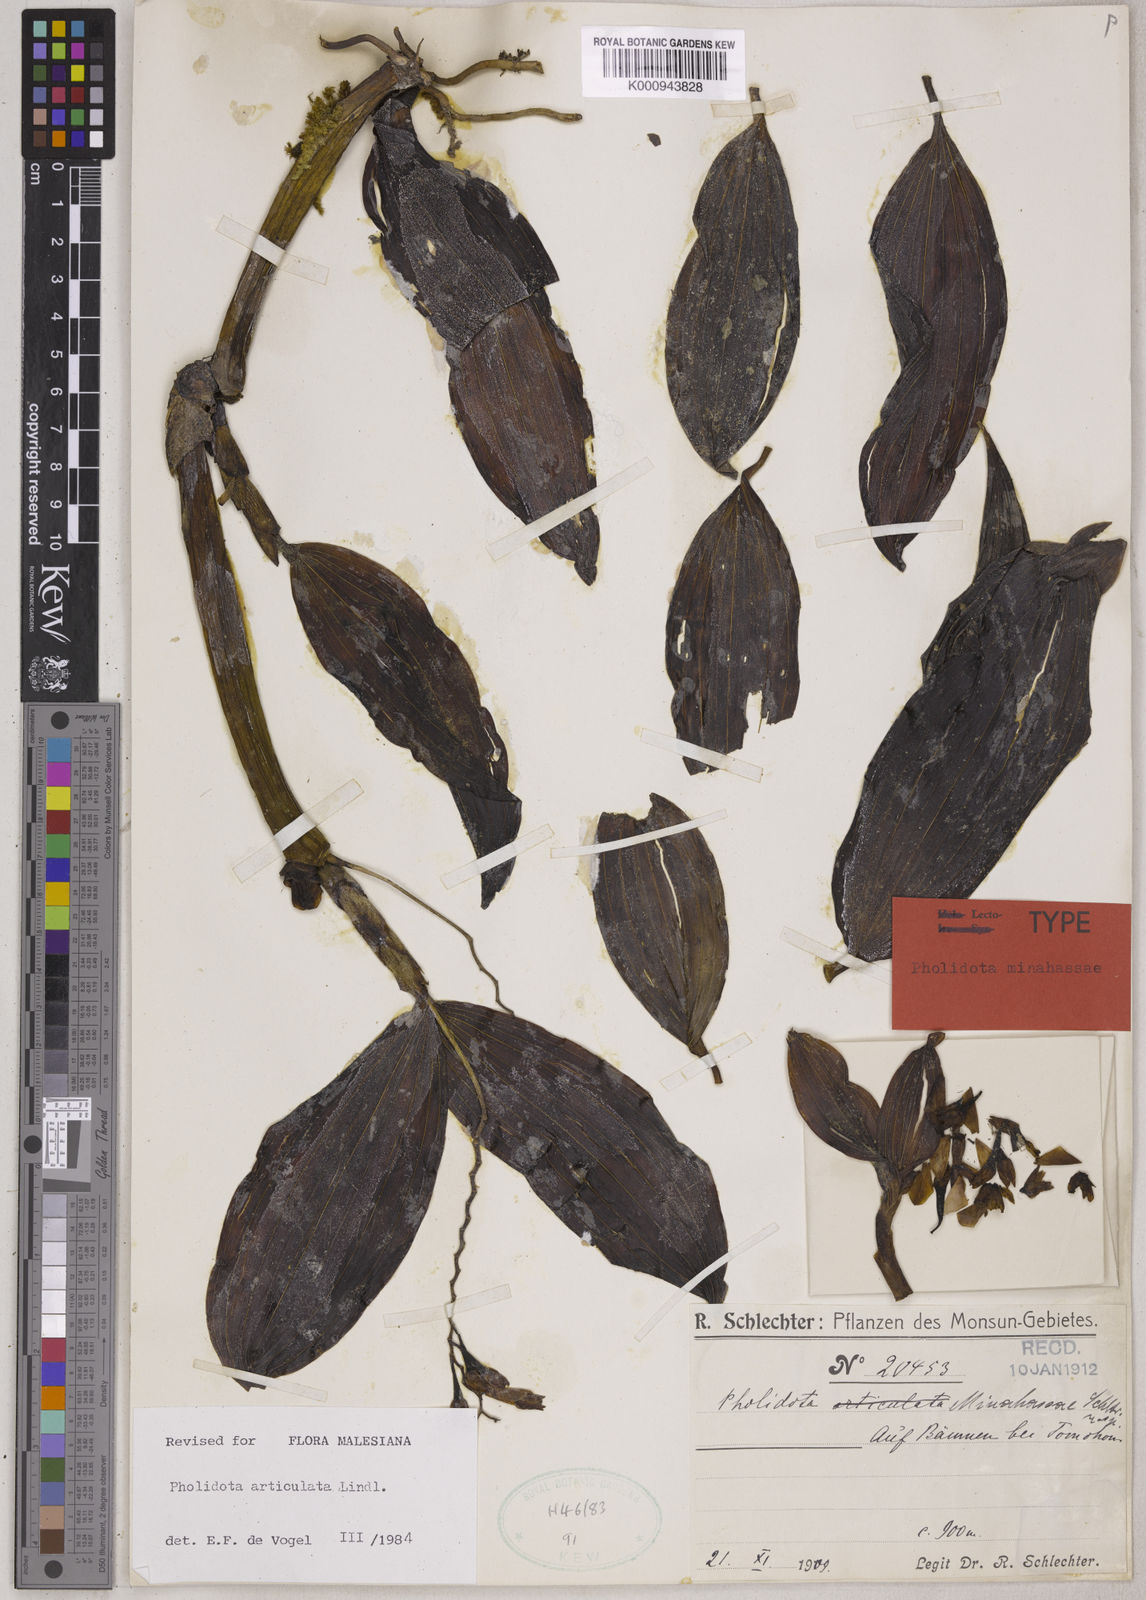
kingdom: Plantae
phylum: Tracheophyta
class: Liliopsida
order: Asparagales
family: Orchidaceae
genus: Coelogyne
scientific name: Coelogyne articulata
